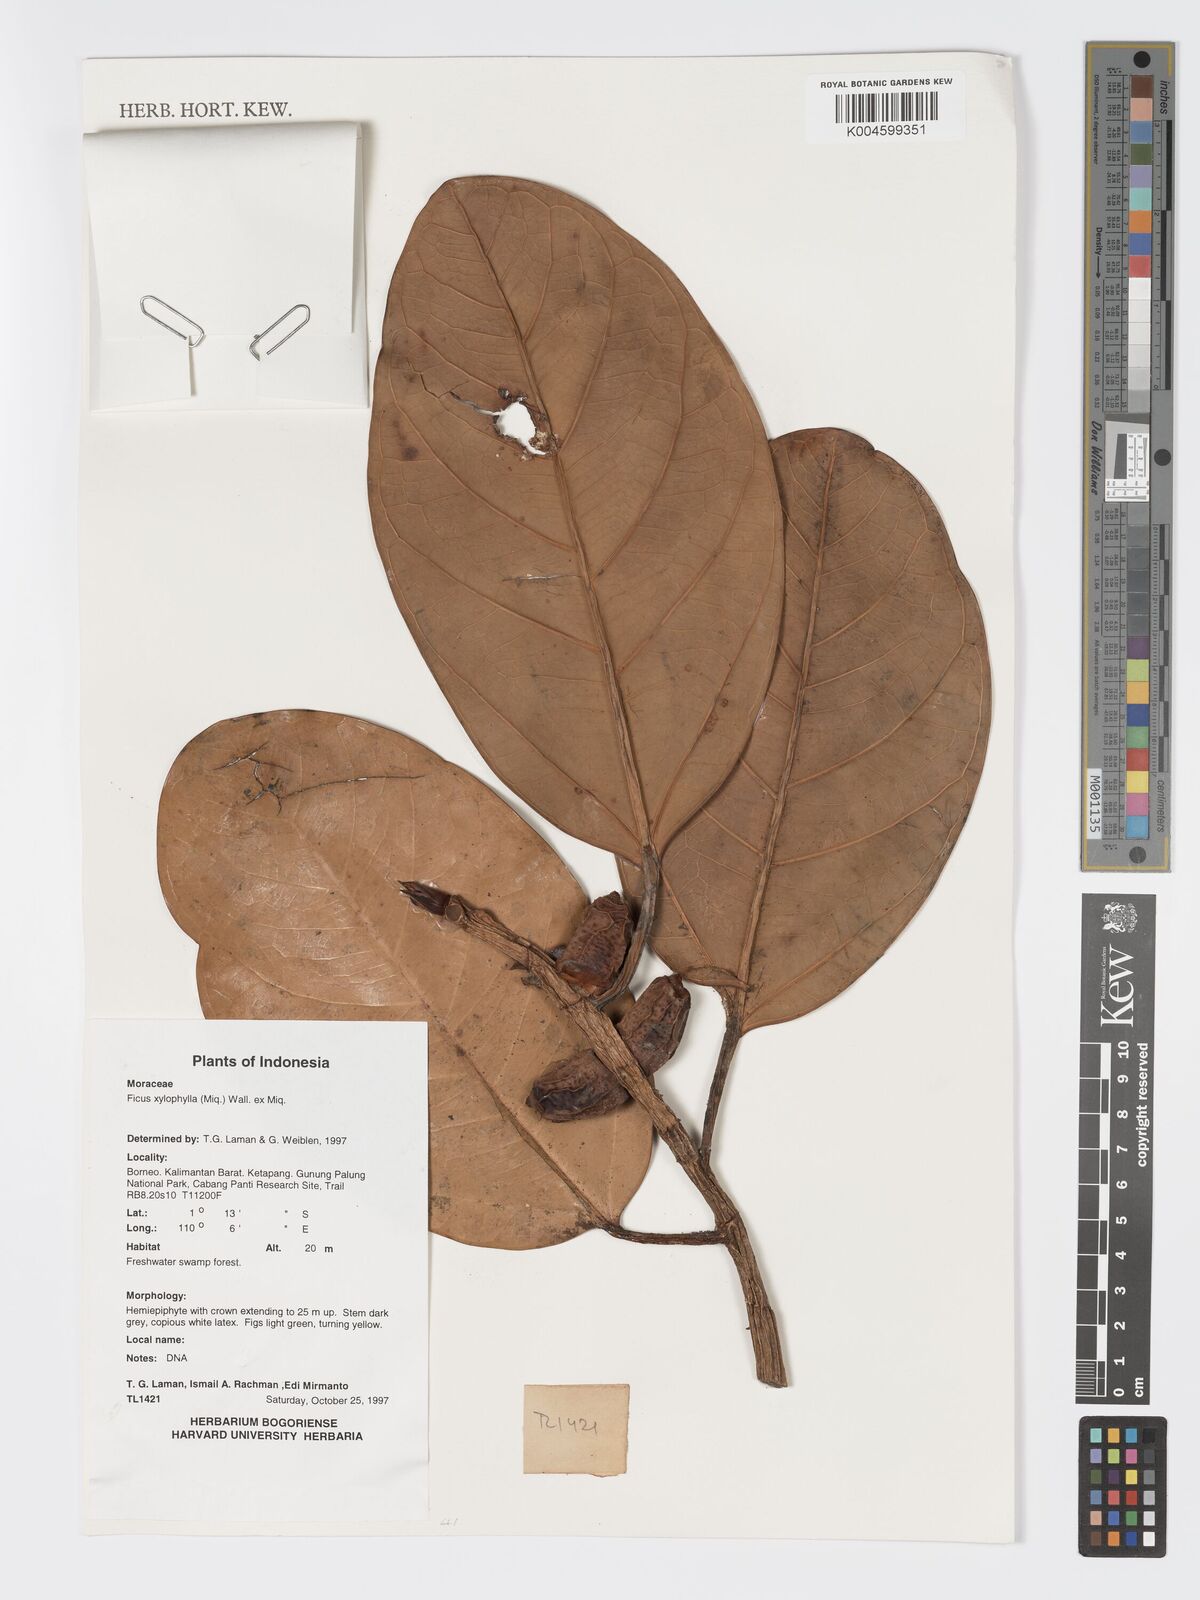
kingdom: Plantae
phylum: Tracheophyta
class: Magnoliopsida
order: Rosales
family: Moraceae
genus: Ficus
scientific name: Ficus xylophylla
